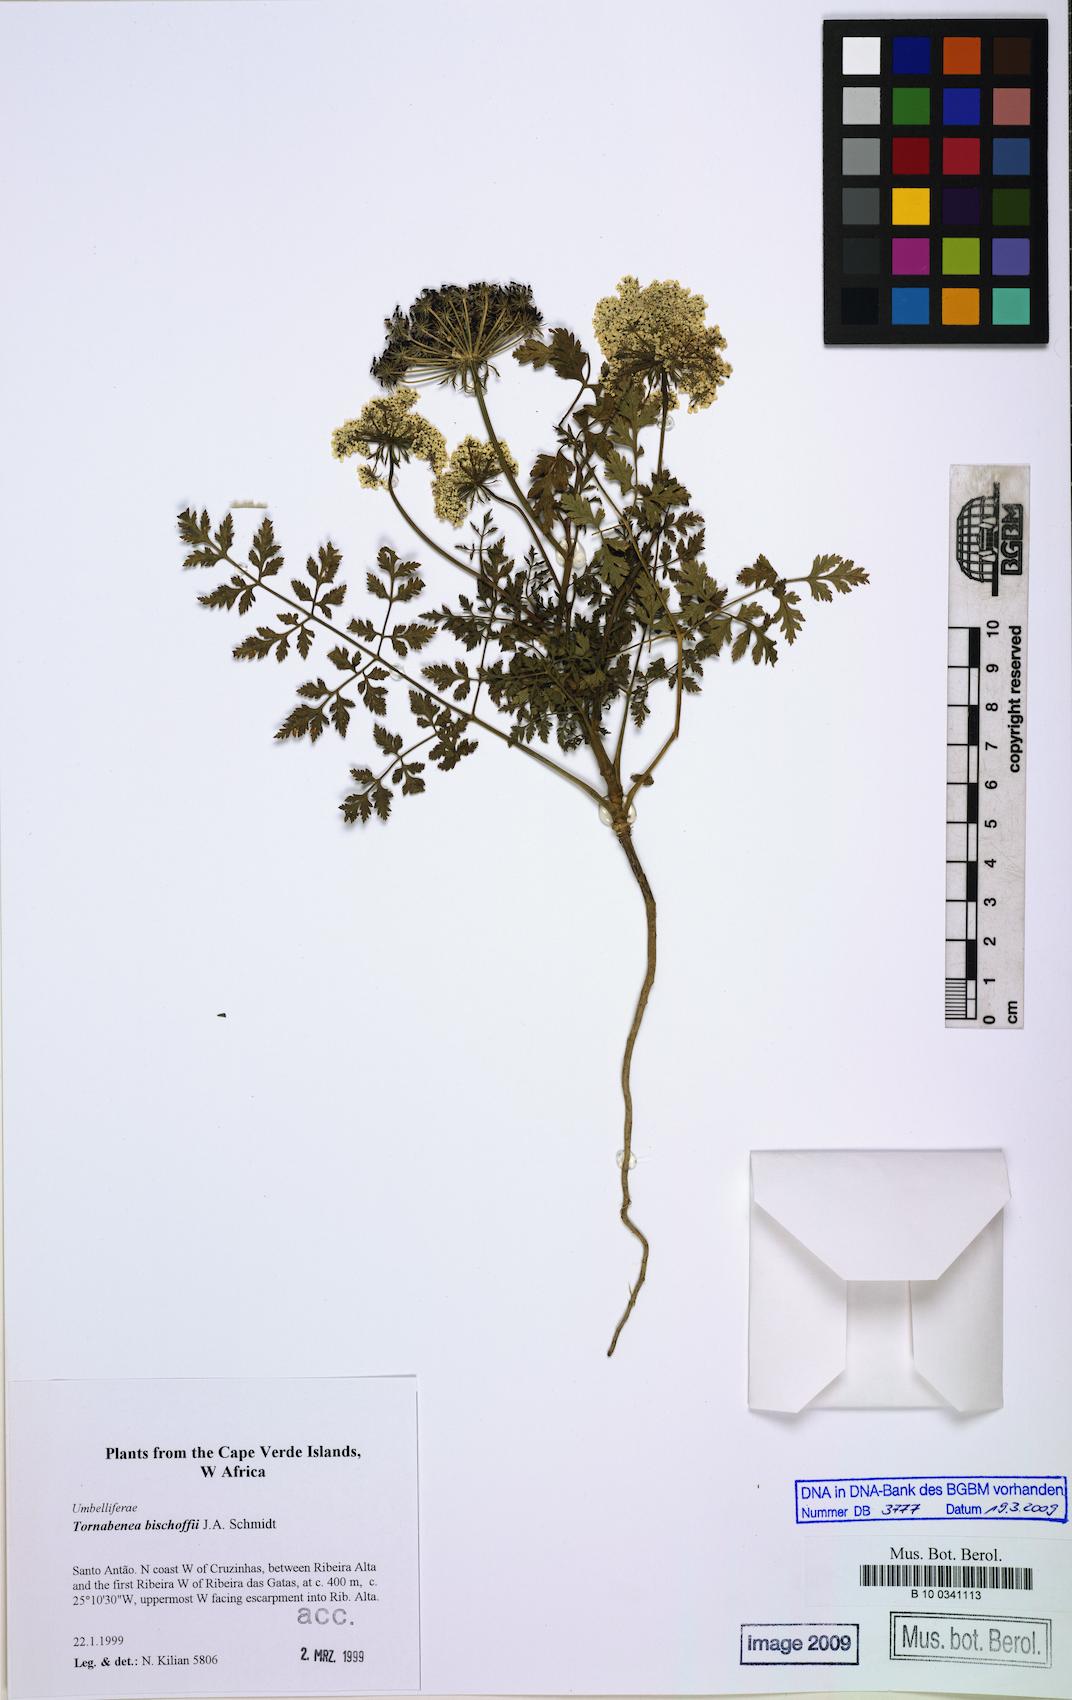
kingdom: Plantae
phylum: Tracheophyta
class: Magnoliopsida
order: Apiales
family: Apiaceae
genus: Daucus
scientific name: Daucus insularis
